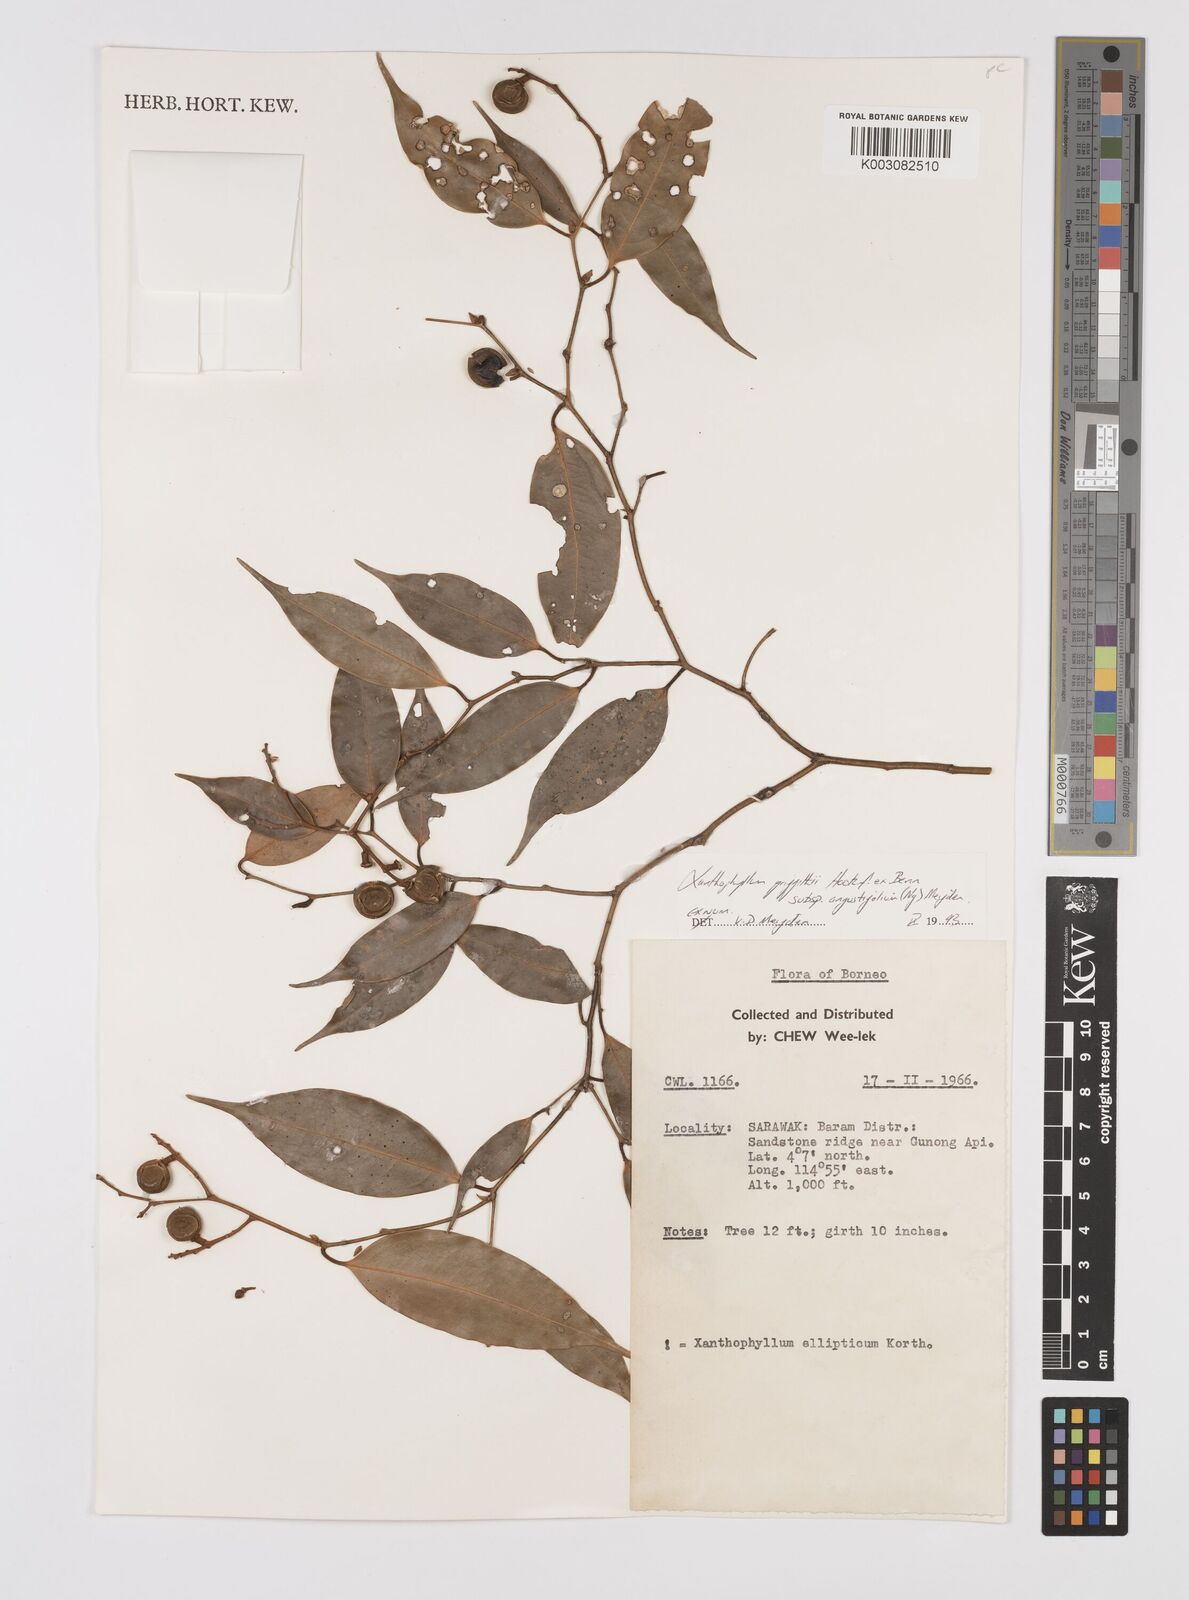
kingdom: Plantae
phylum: Tracheophyta
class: Magnoliopsida
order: Fabales
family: Polygalaceae
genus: Xanthophyllum
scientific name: Xanthophyllum griffithii
